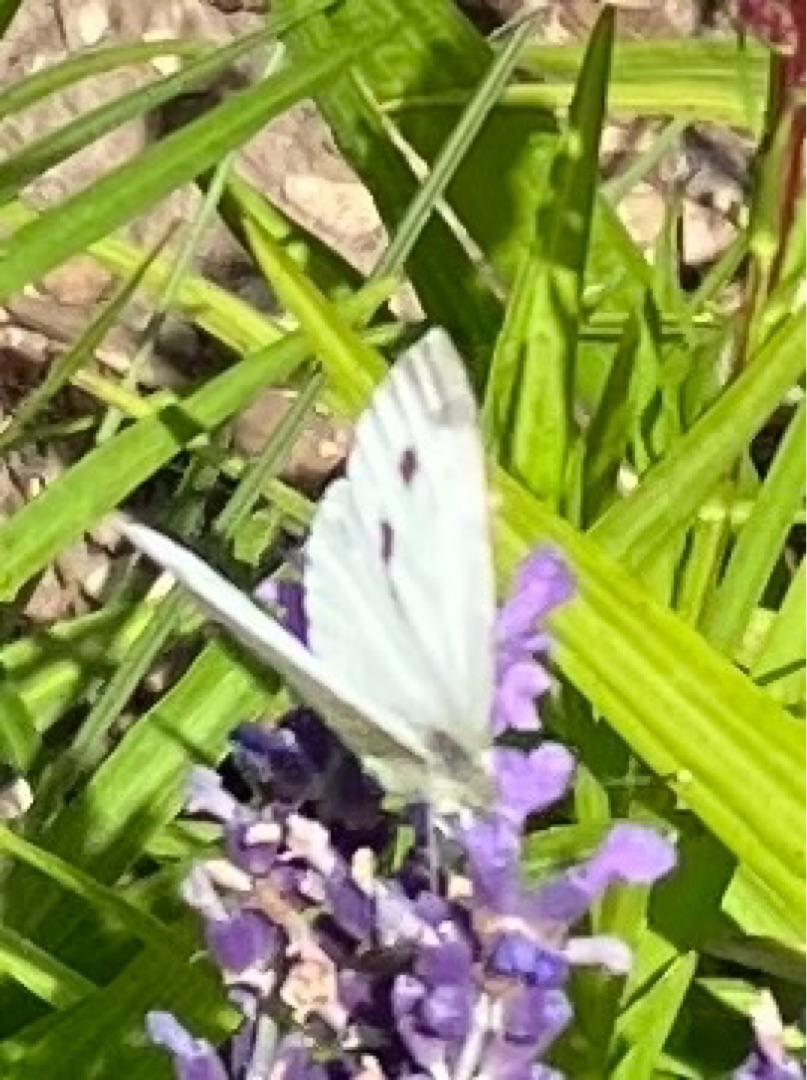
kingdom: Animalia
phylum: Arthropoda
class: Insecta
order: Lepidoptera
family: Pieridae
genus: Pieris
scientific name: Pieris napi
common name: Grønåret kålsommerfugl
